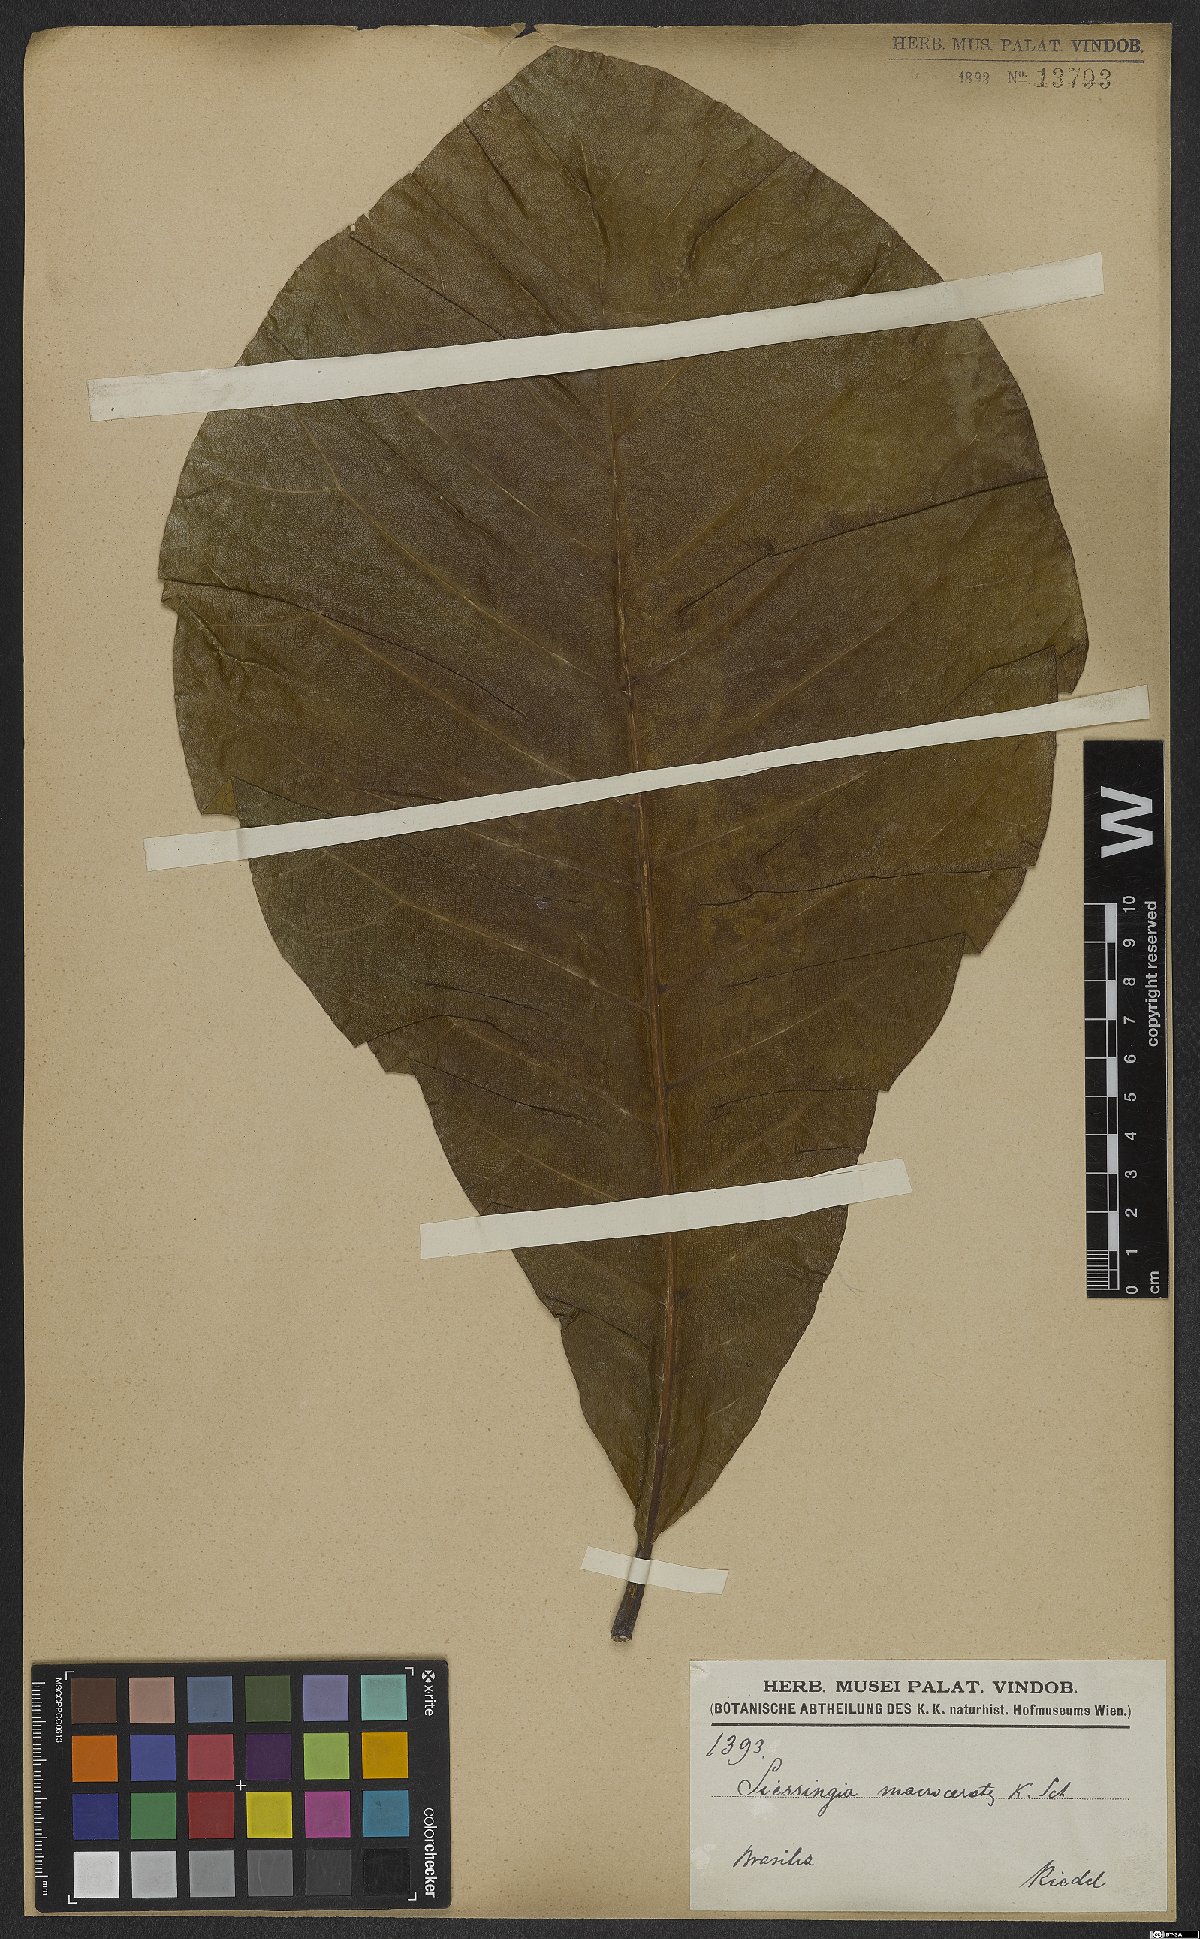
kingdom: Plantae
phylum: Tracheophyta
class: Magnoliopsida
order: Gentianales
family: Rubiaceae
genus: Simira
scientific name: Simira macrocrater
